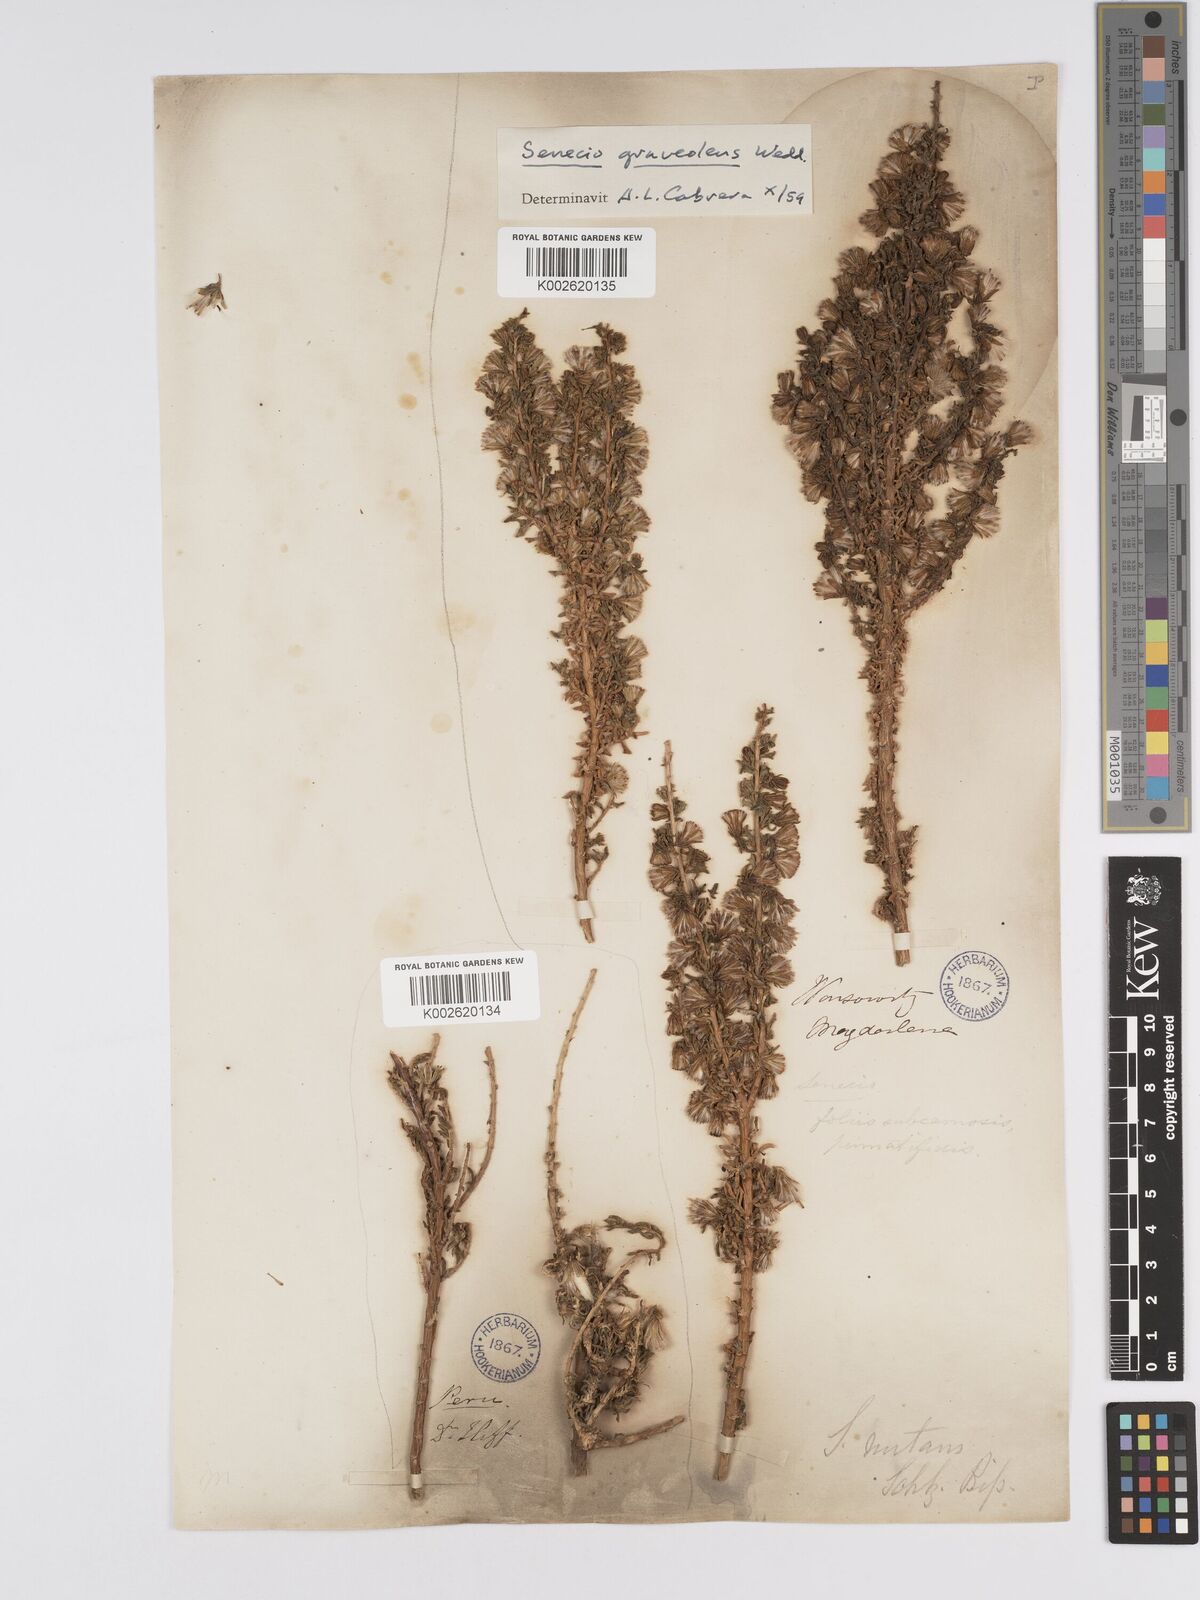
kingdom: Plantae
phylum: Tracheophyta
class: Magnoliopsida
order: Asterales
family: Asteraceae
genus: Senecio
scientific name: Senecio nutans
